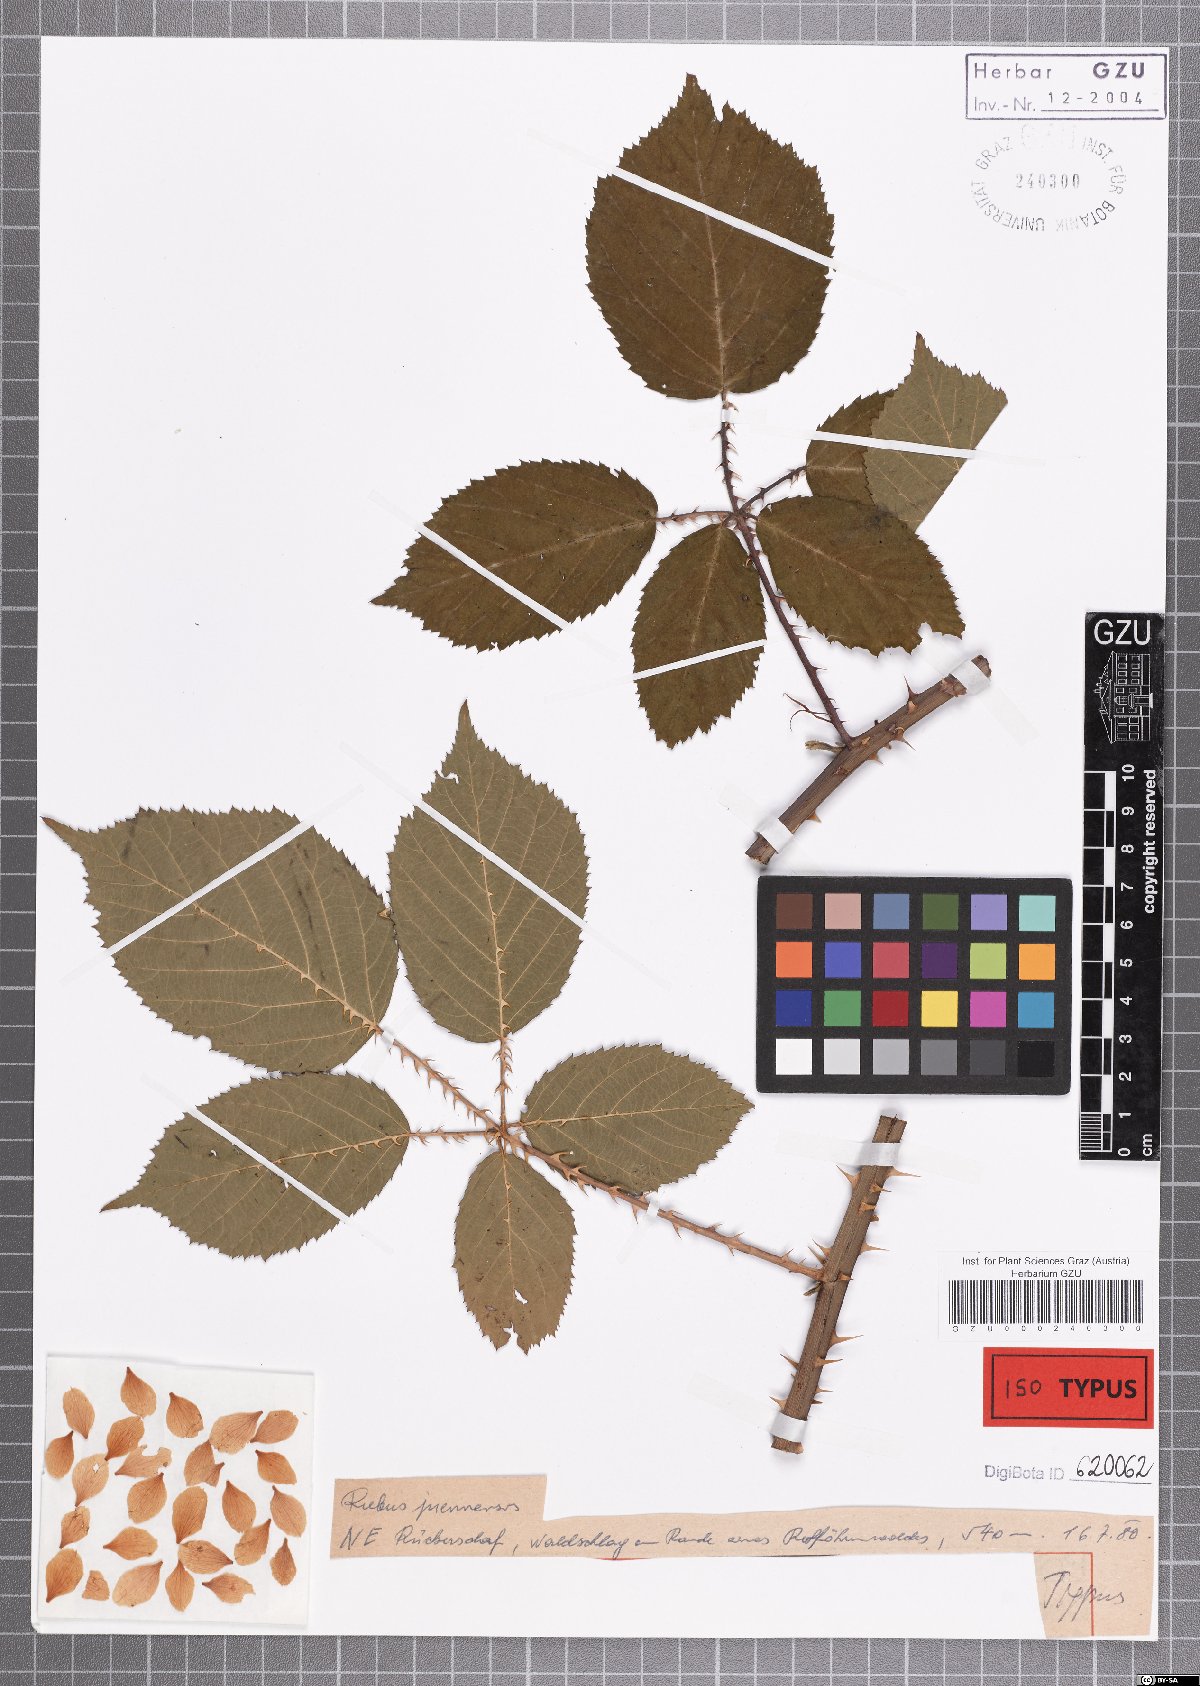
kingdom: Plantae
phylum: Tracheophyta
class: Magnoliopsida
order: Rosales
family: Rosaceae
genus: Rubus
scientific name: Rubus juennensis
